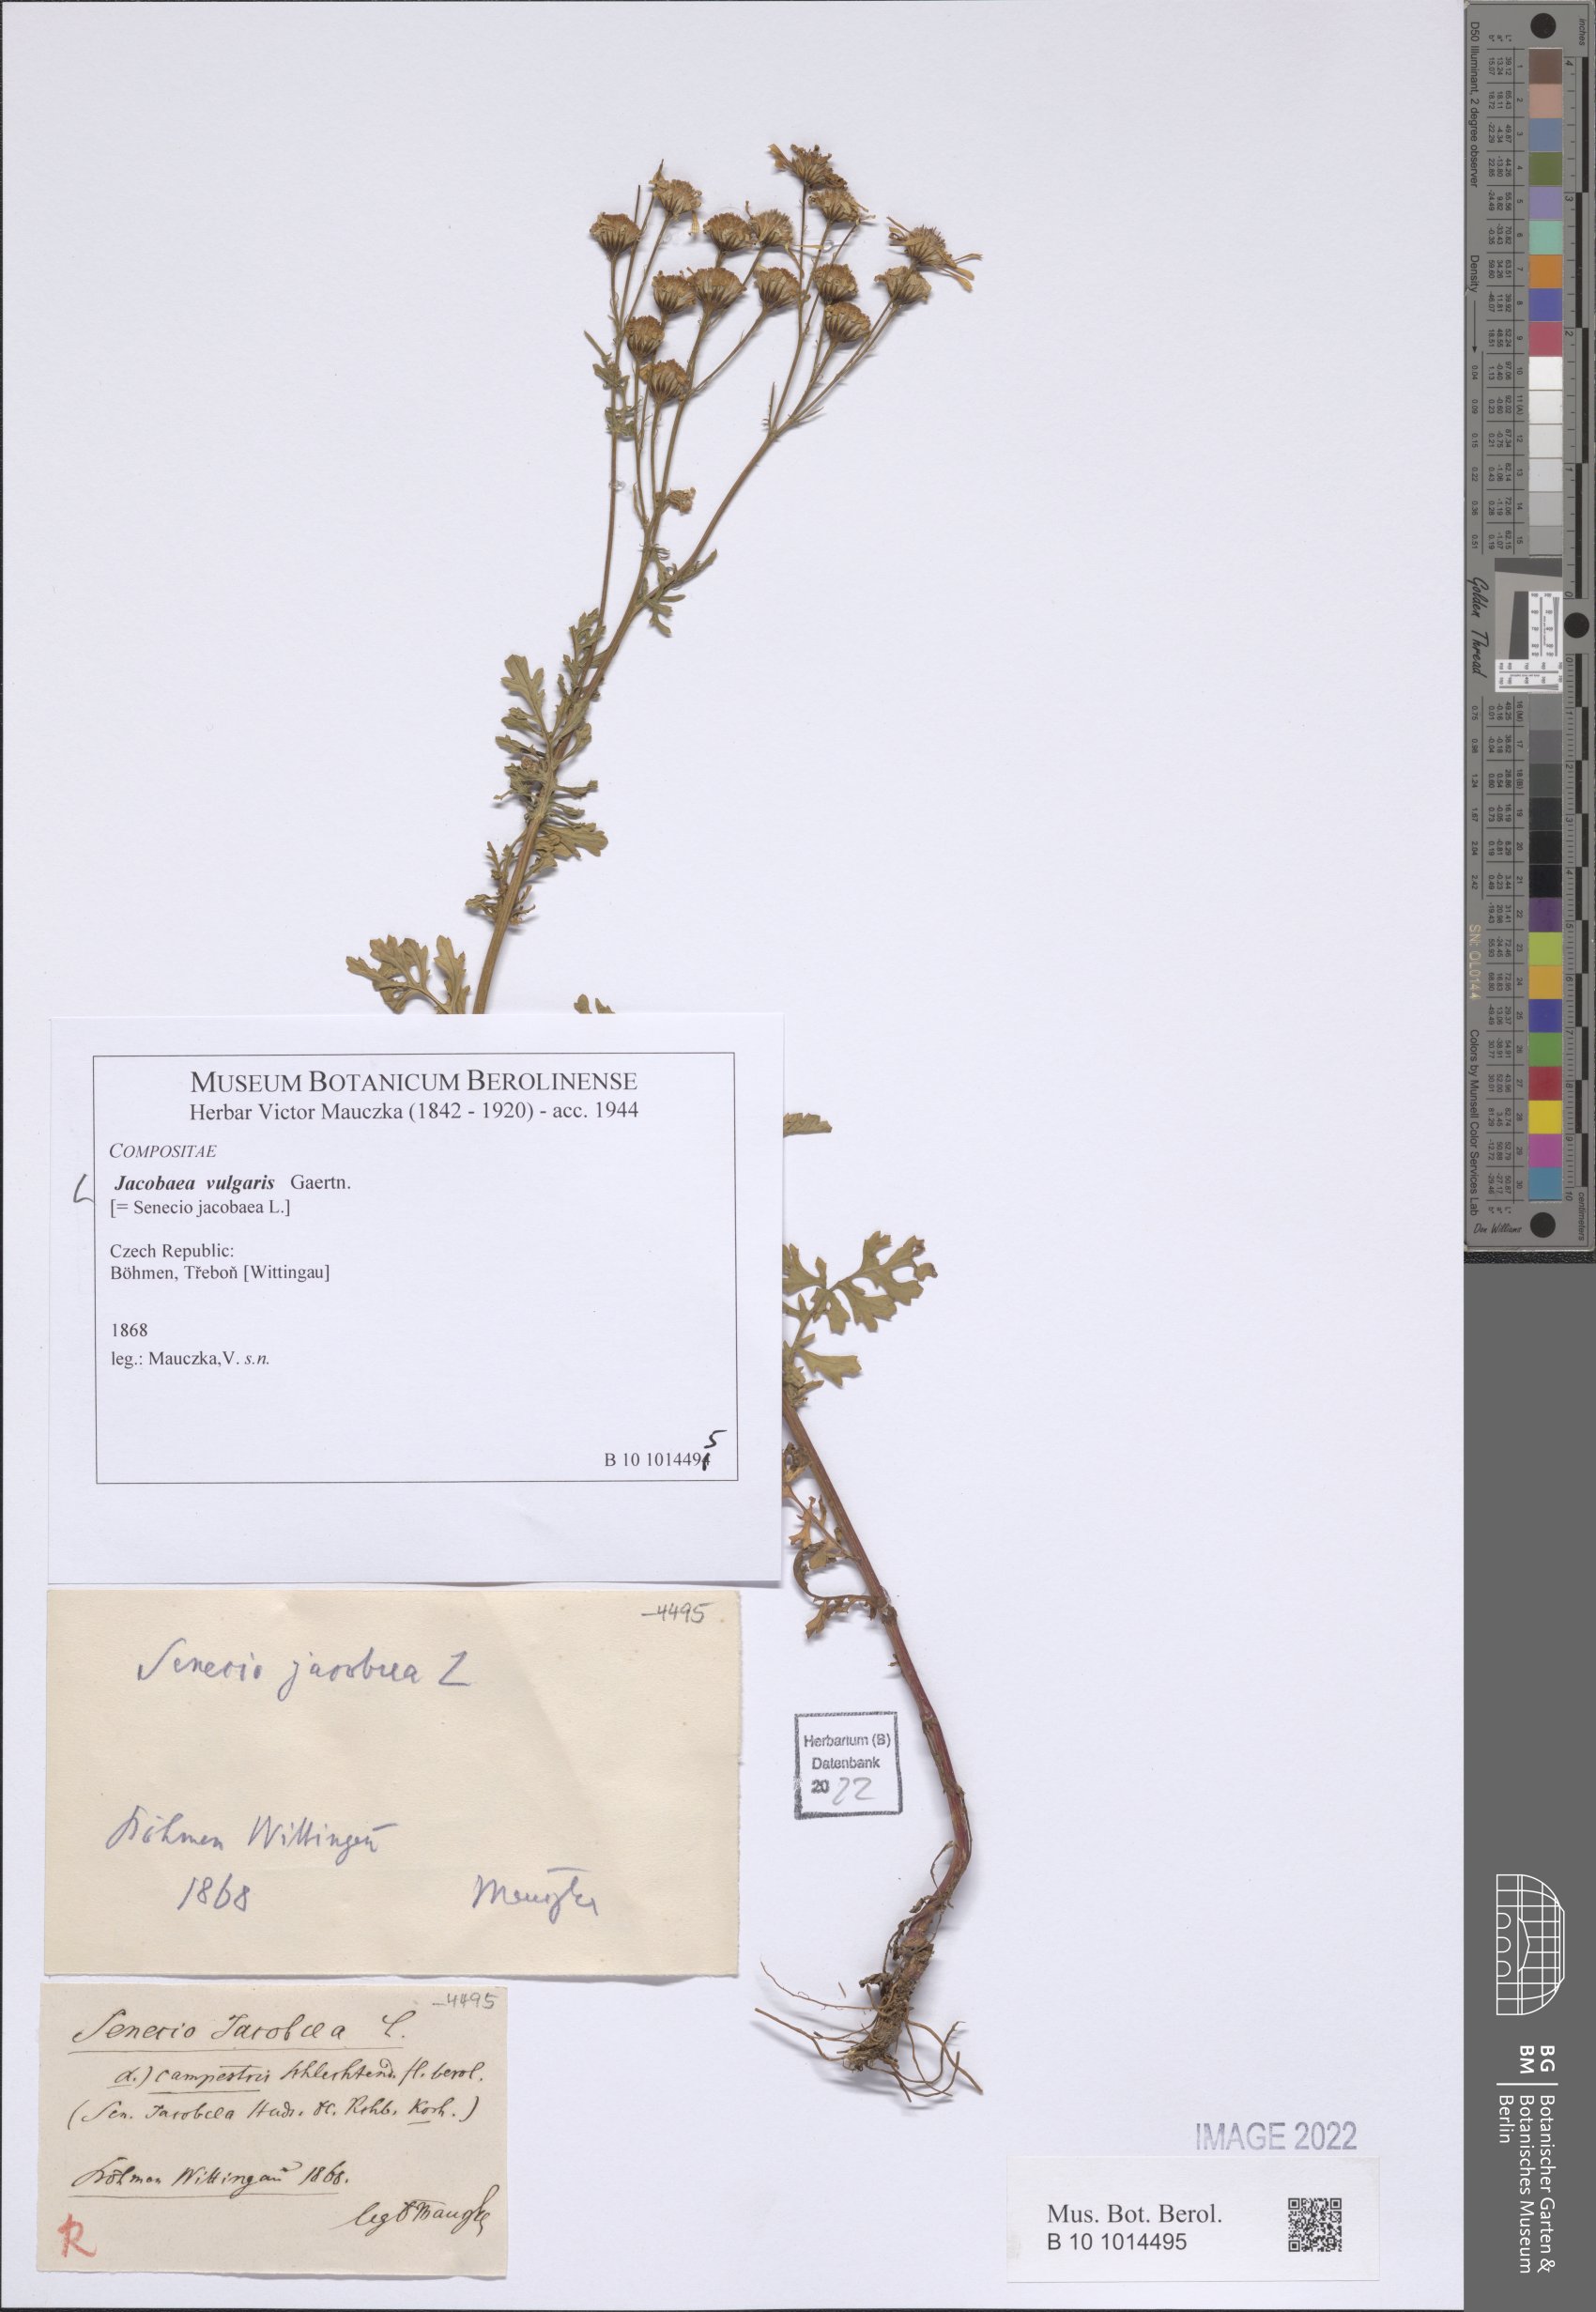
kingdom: Plantae
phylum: Tracheophyta
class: Magnoliopsida
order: Asterales
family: Asteraceae
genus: Jacobaea
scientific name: Jacobaea vulgaris
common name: Stinking willie
